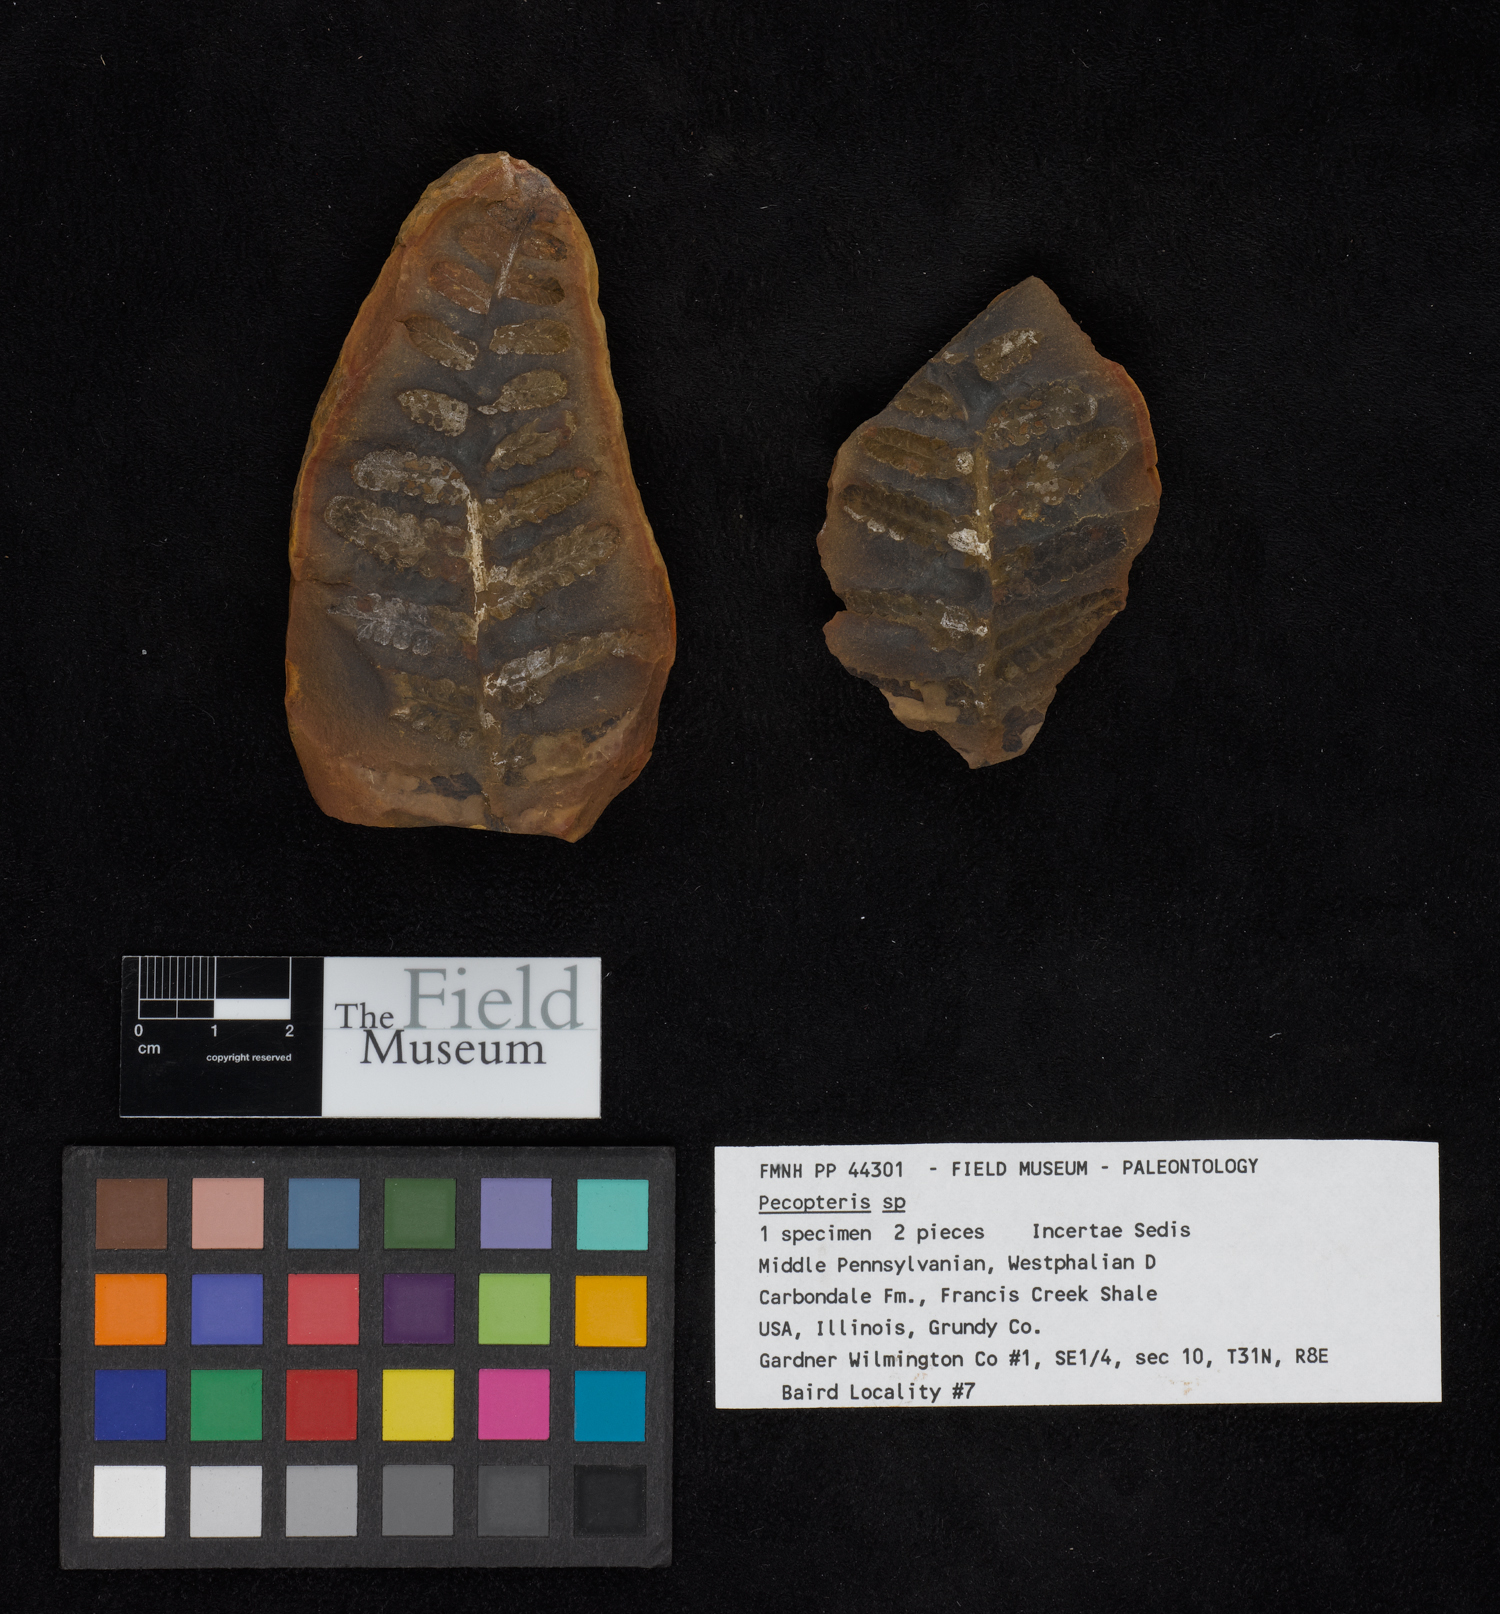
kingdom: Plantae
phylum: Tracheophyta
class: Polypodiopsida
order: Marattiales
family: Asterothecaceae
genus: Pecopteris
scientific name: Pecopteris
